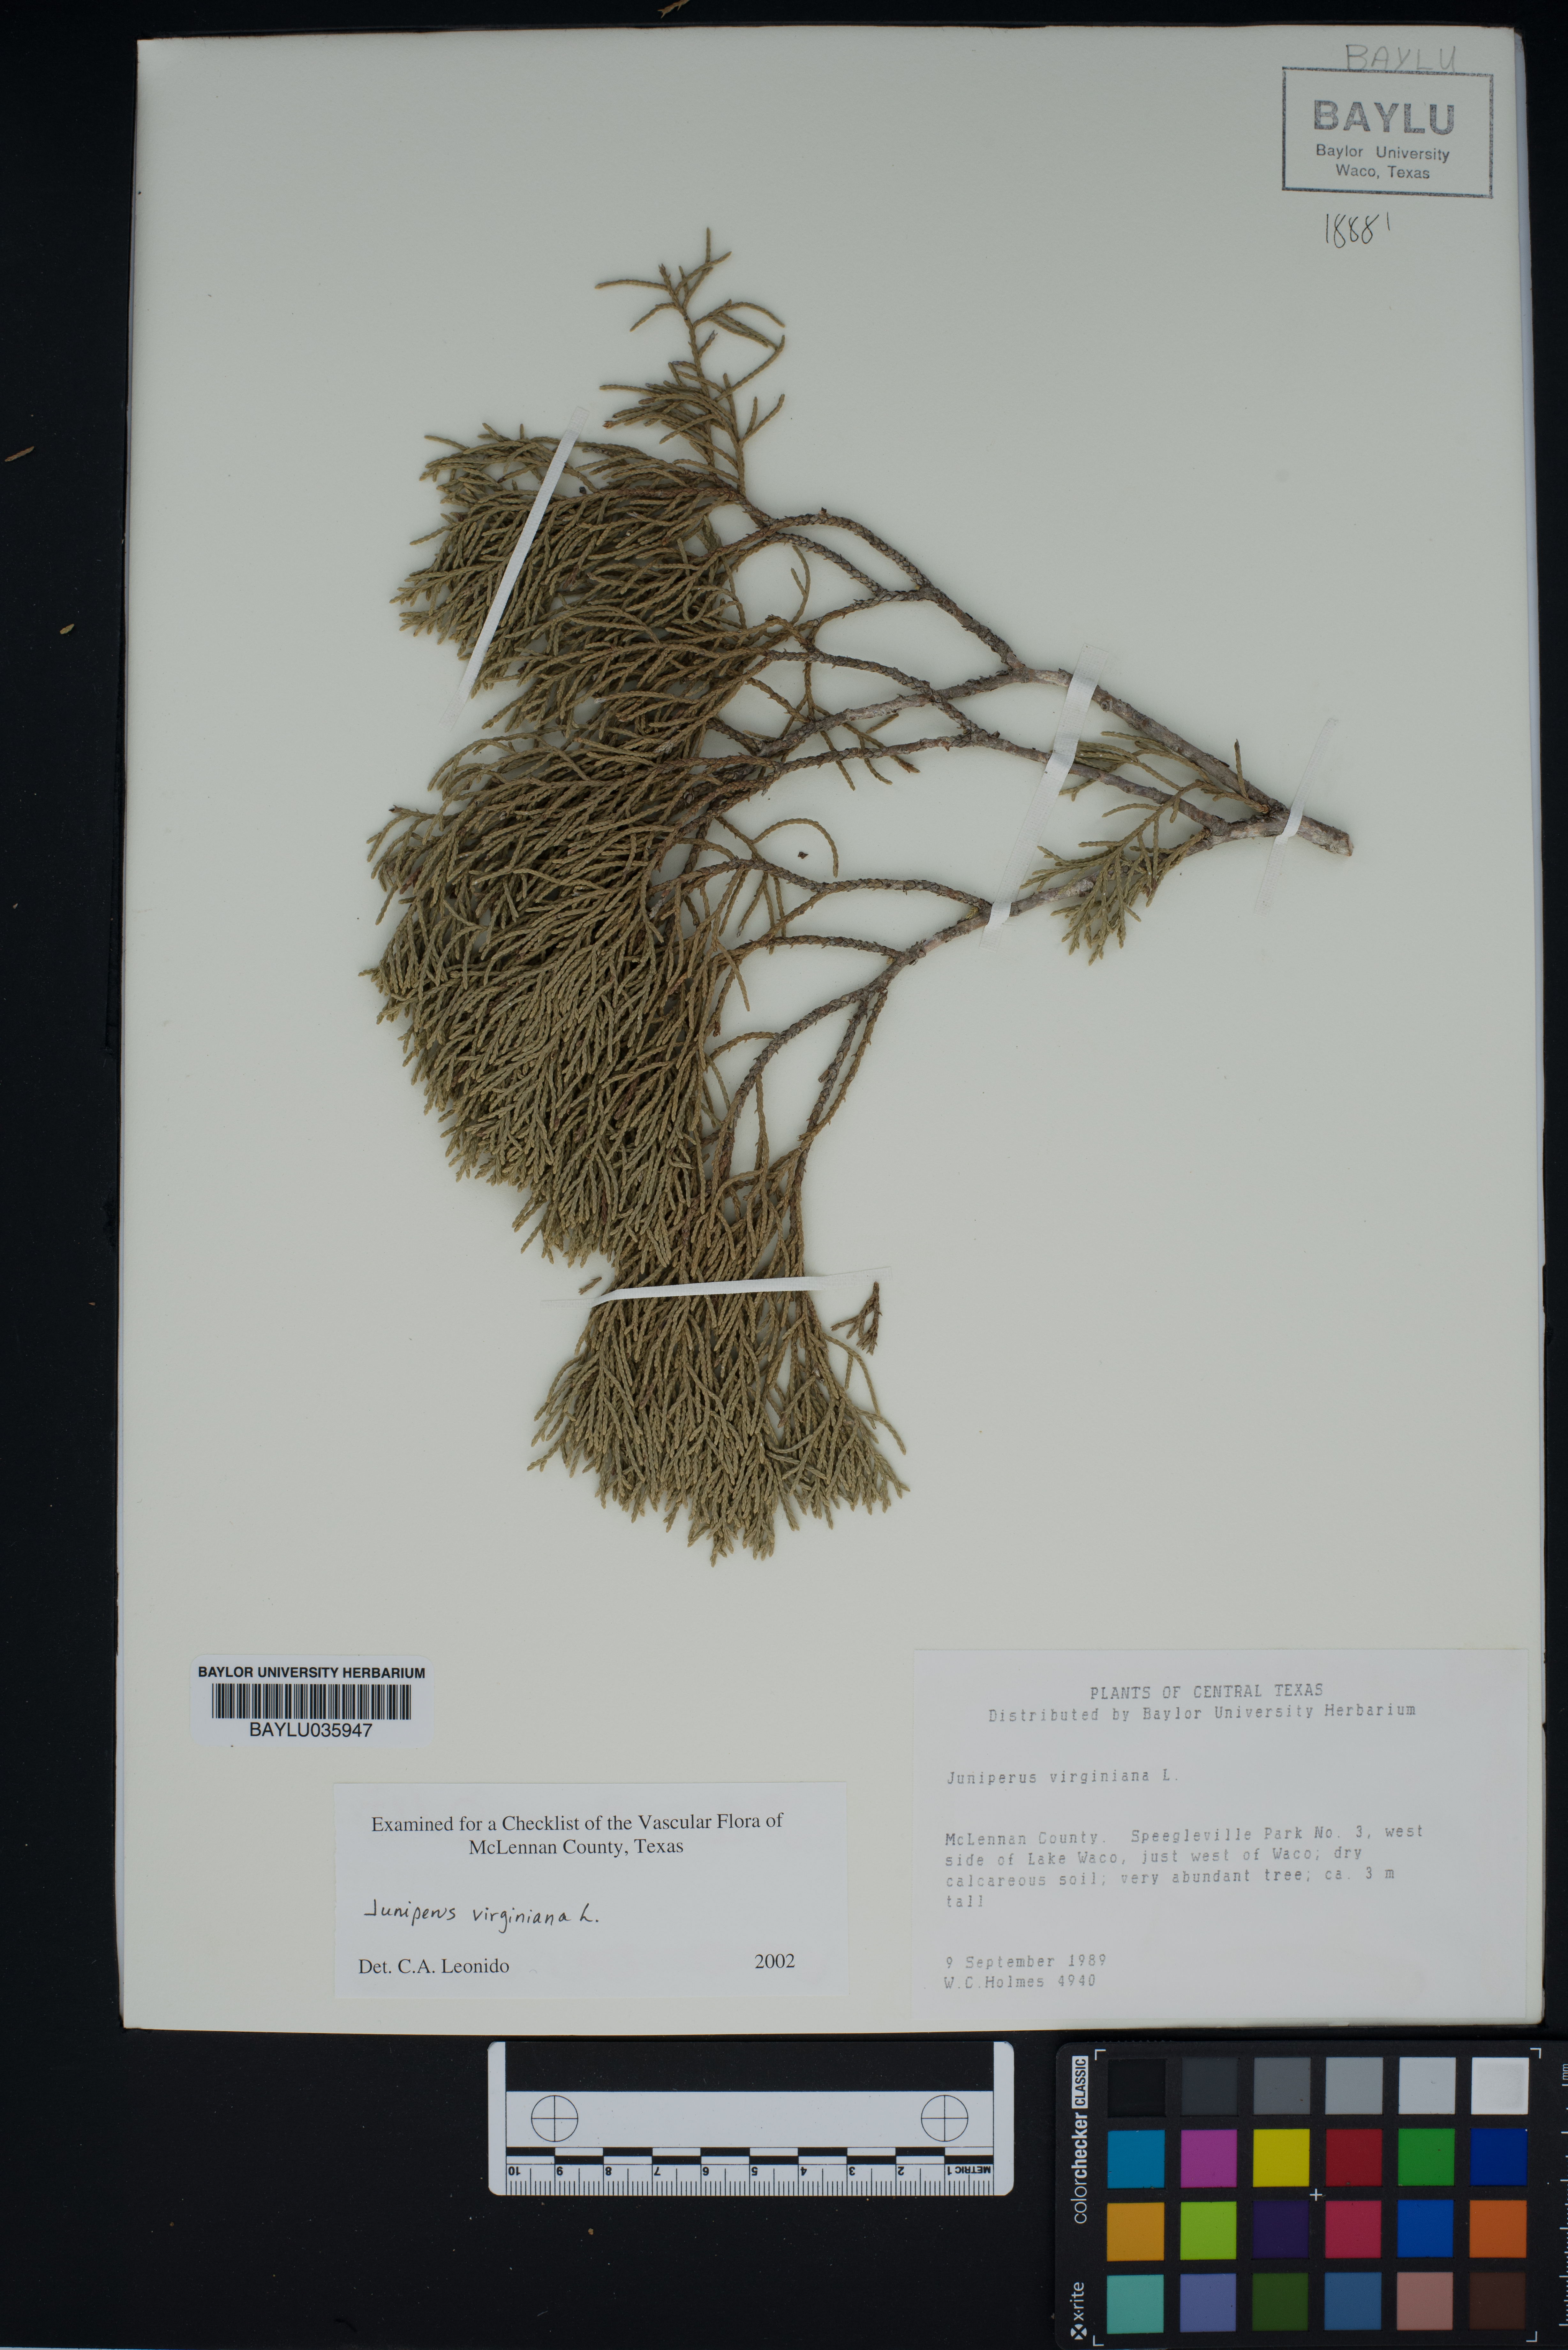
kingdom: Plantae
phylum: Tracheophyta
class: Pinopsida
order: Pinales
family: Cupressaceae
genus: Juniperus
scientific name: Juniperus virginiana
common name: Red juniper
